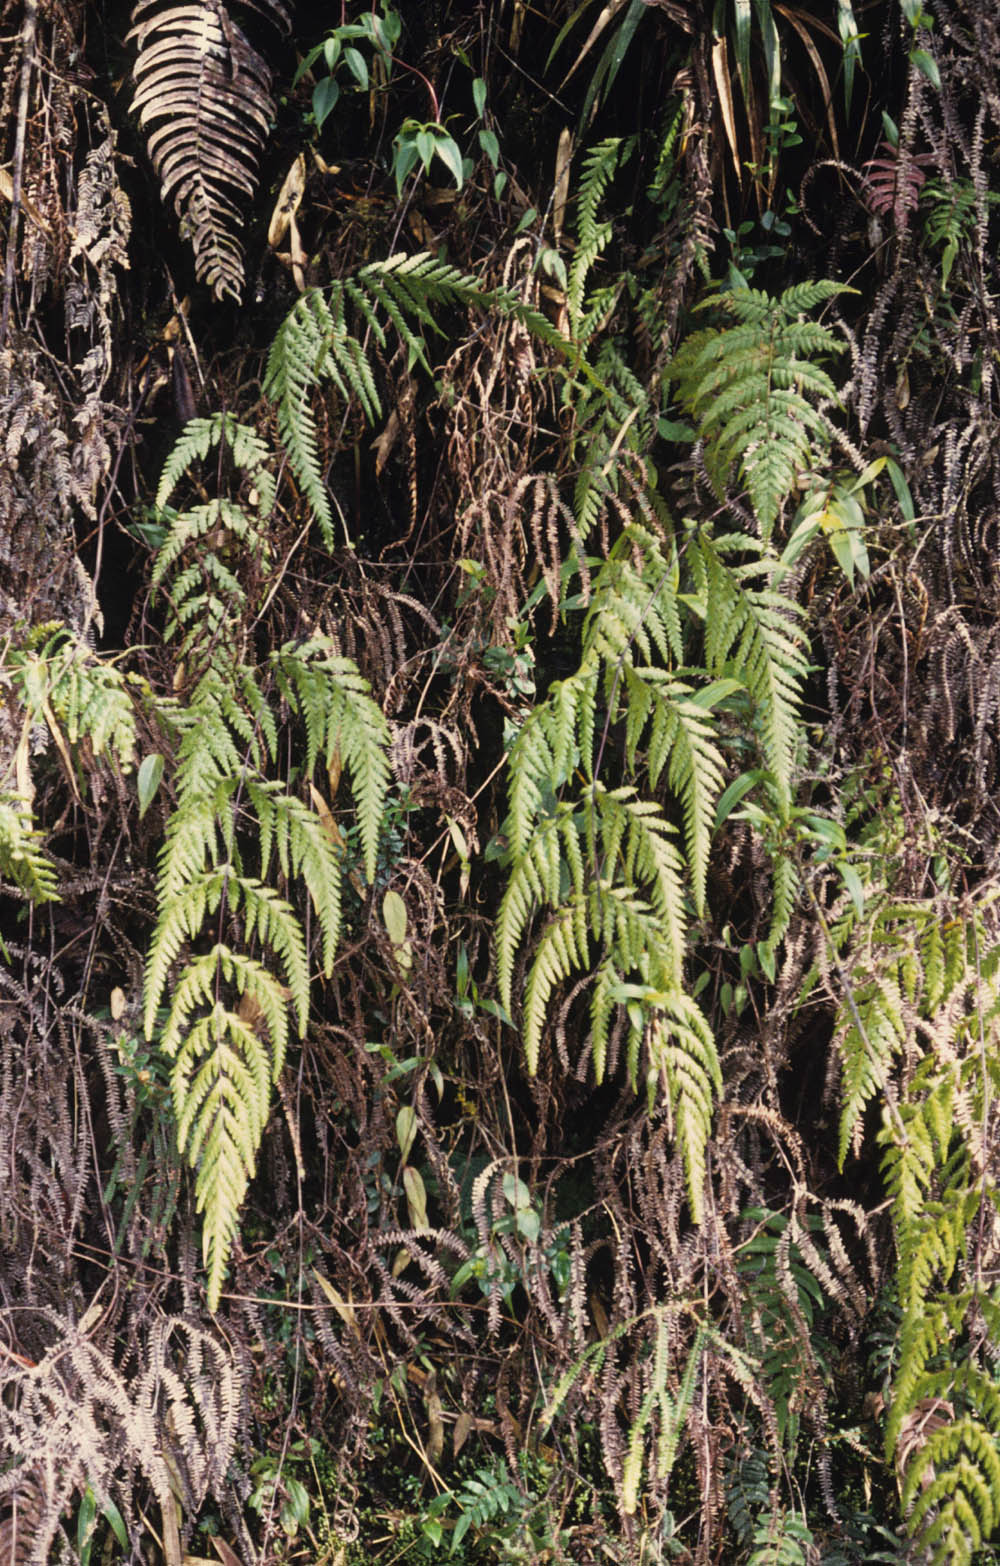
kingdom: Plantae
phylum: Tracheophyta
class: Polypodiopsida
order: Cyatheales
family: Loxsomataceae
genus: Loxsomopsis
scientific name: Loxsomopsis pearcei
